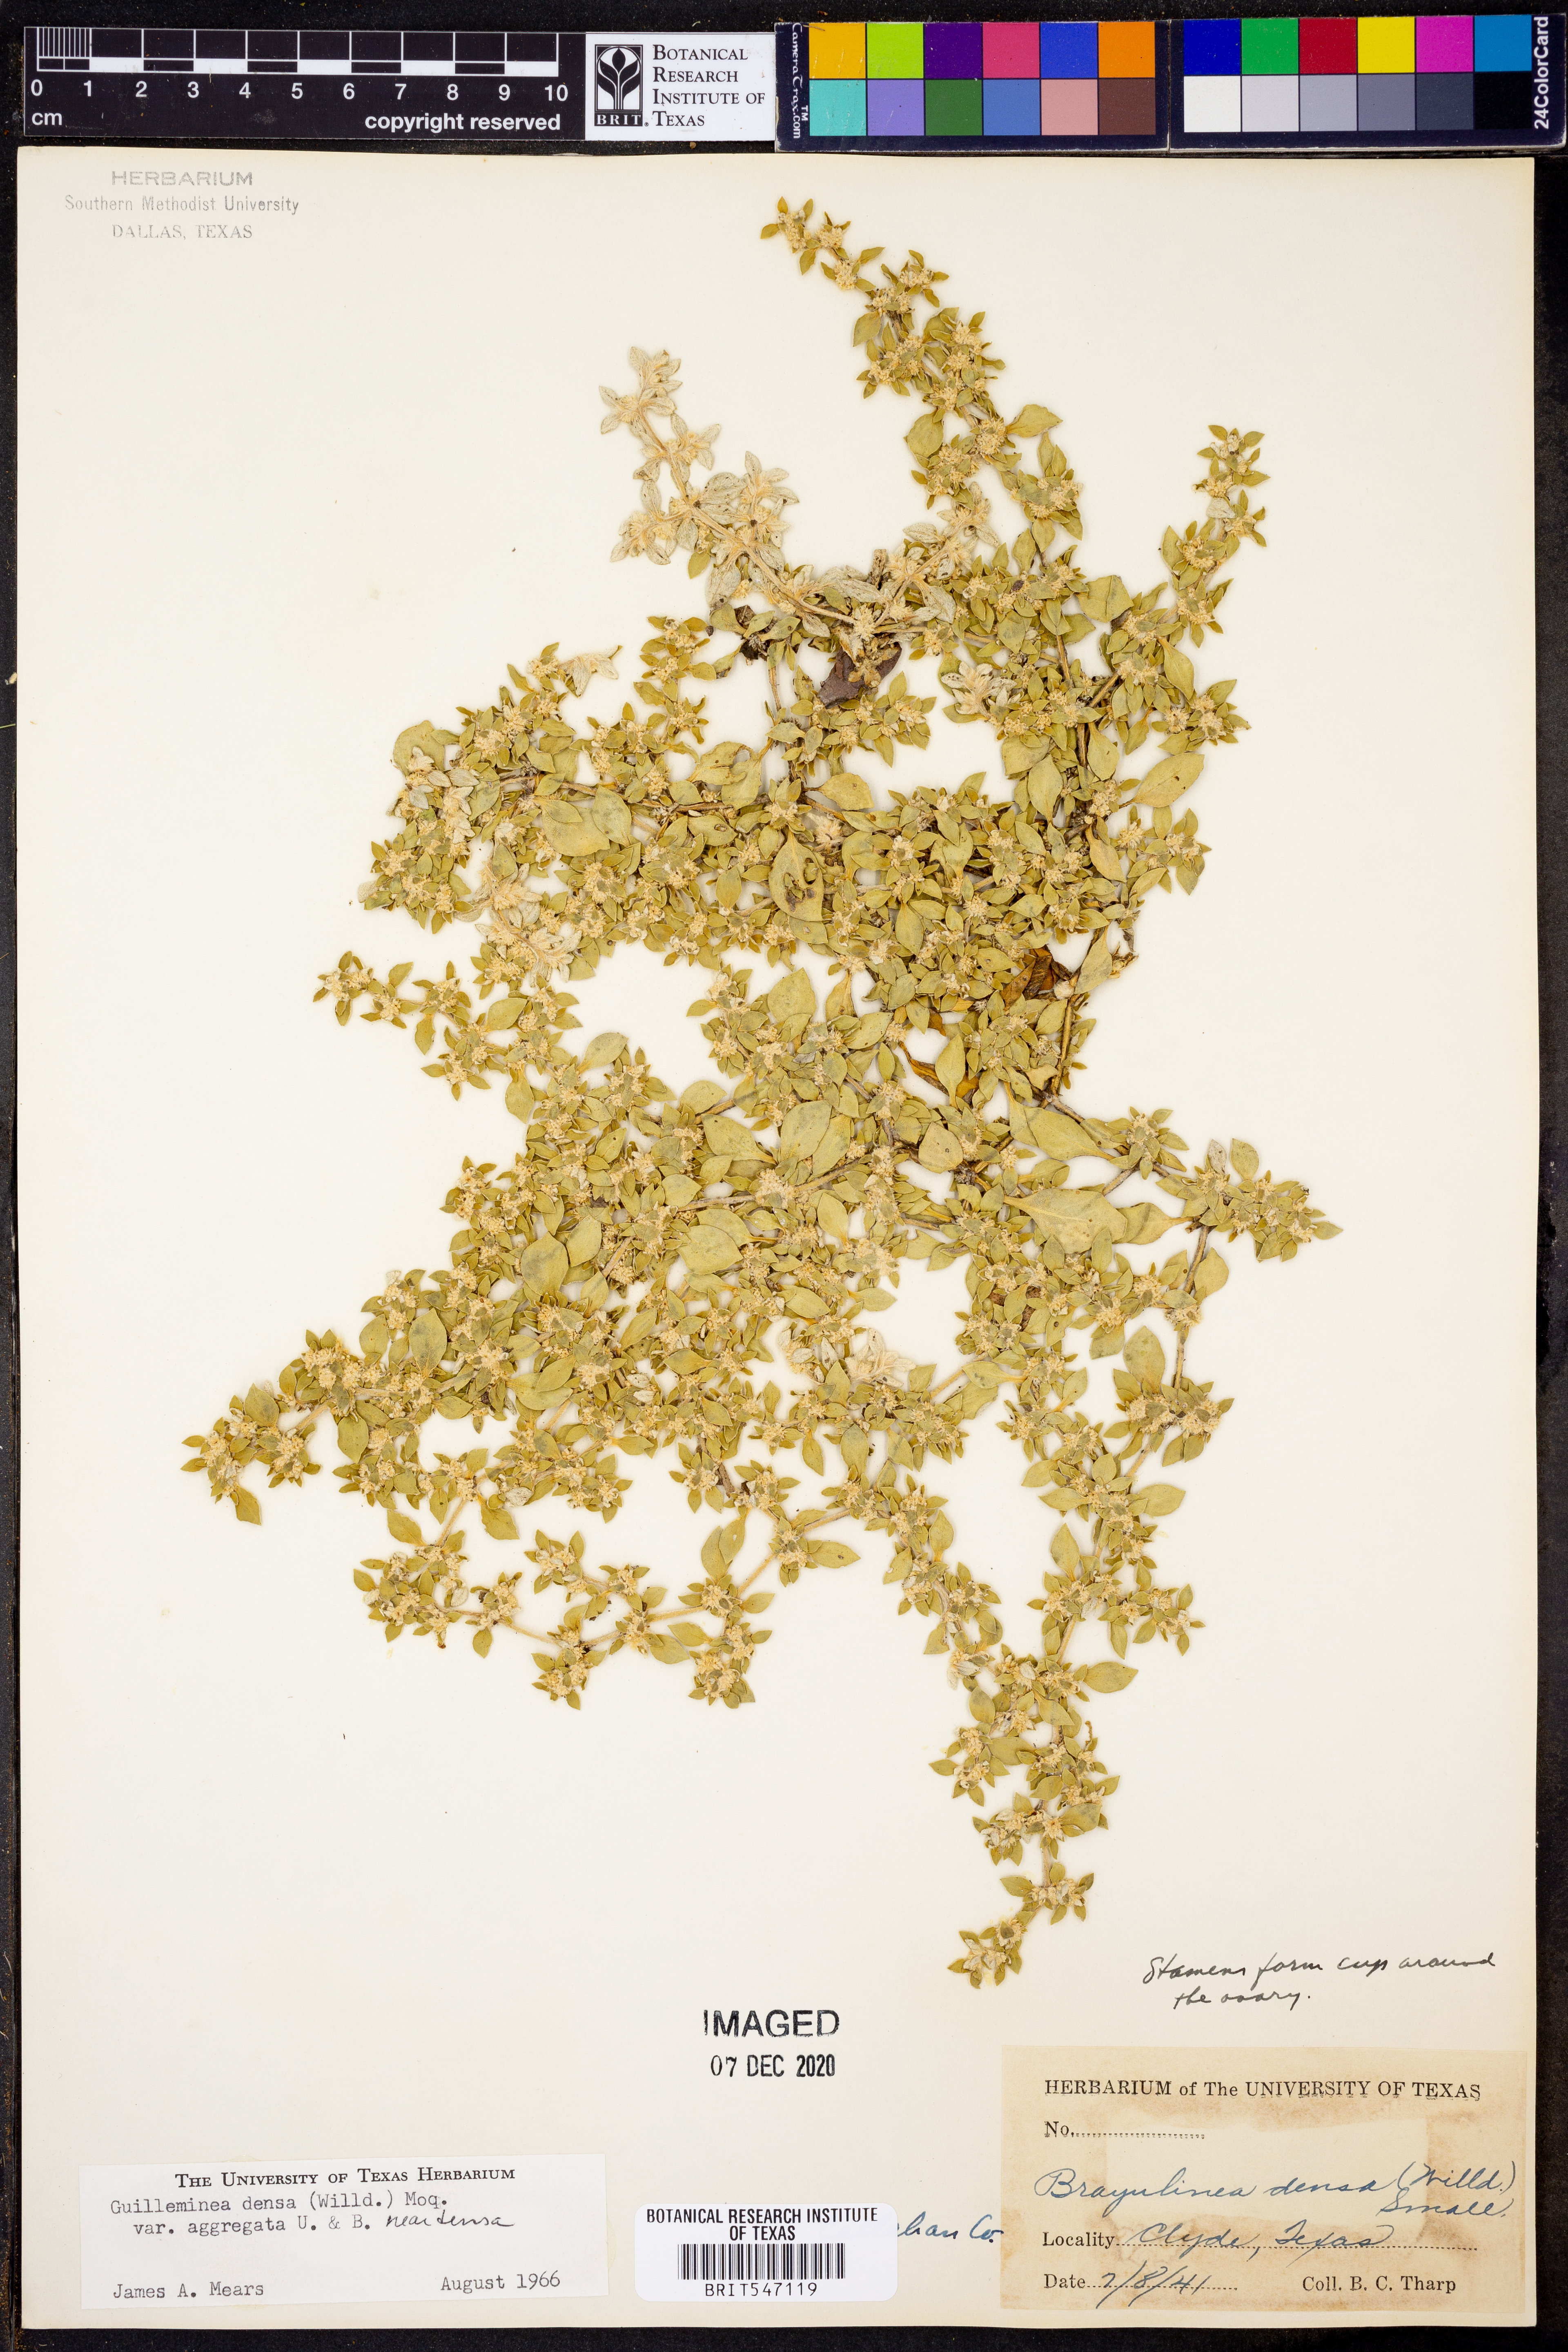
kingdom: Plantae
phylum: Tracheophyta
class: Magnoliopsida
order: Caryophyllales
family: Amaranthaceae
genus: Guilleminea
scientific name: Guilleminea densa
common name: Small matweed
